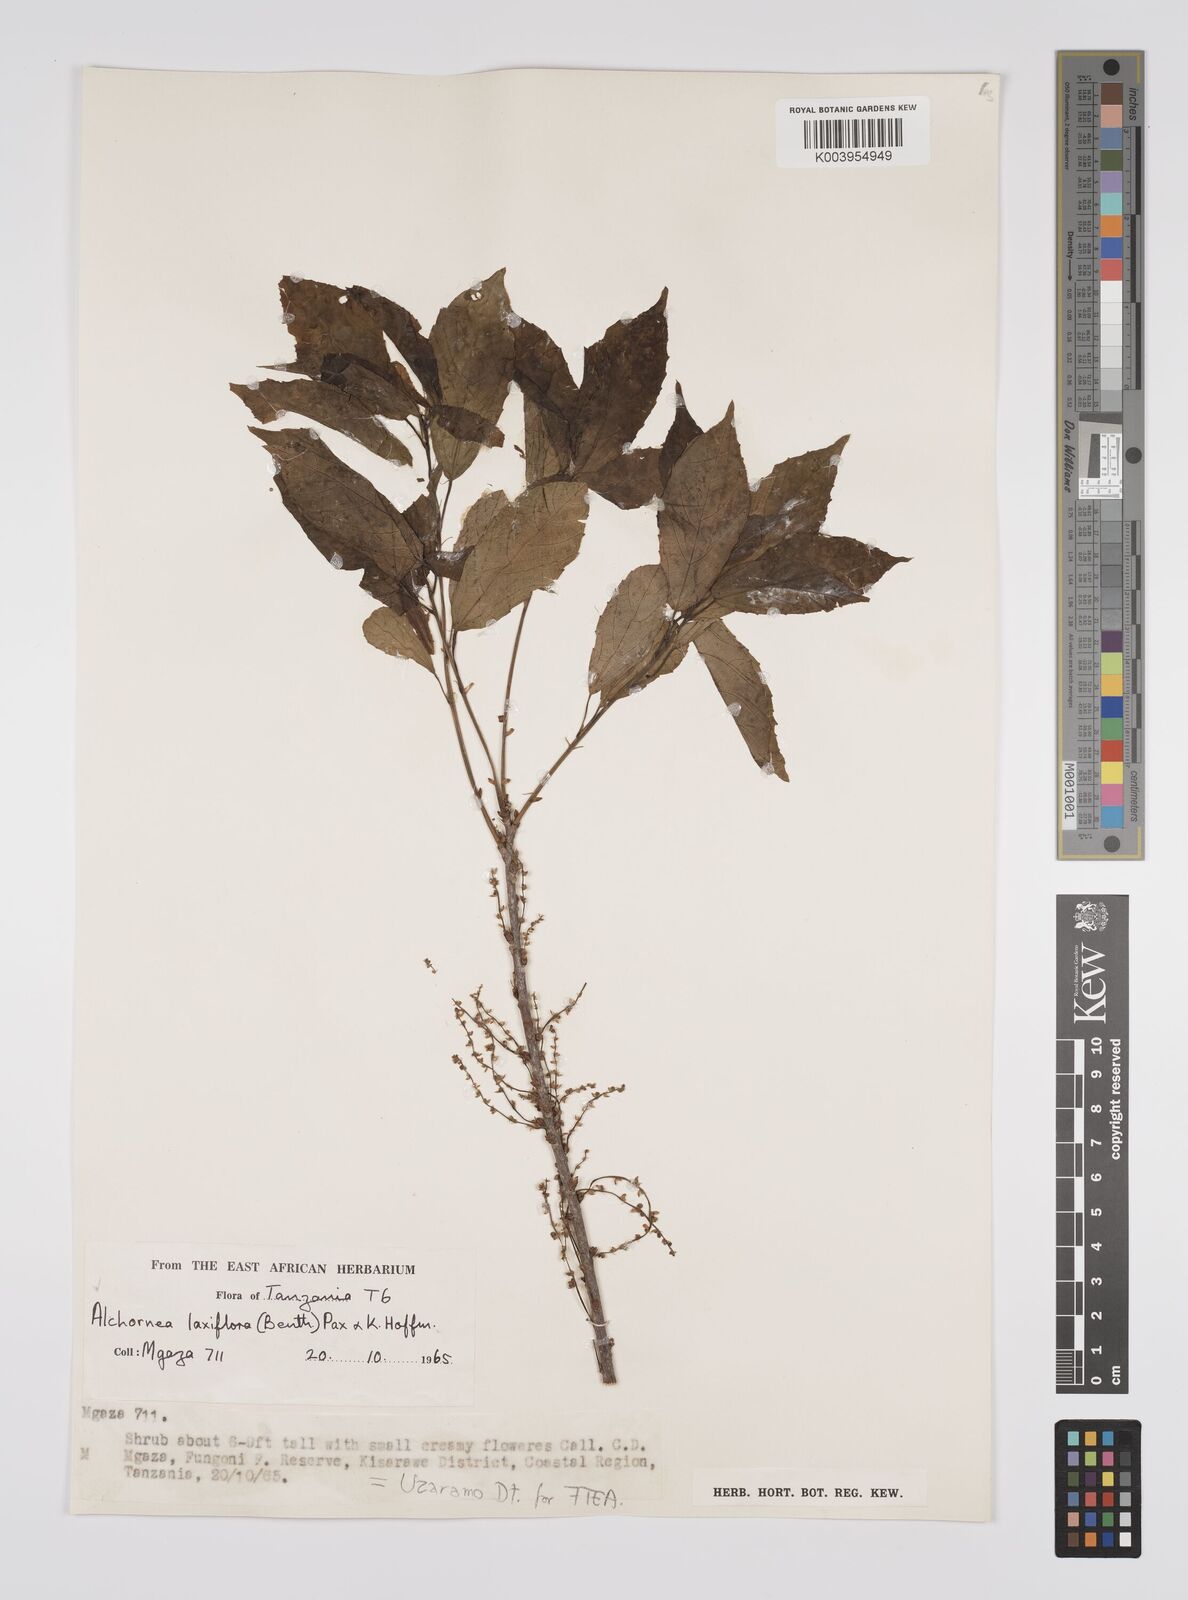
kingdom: Plantae
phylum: Tracheophyta
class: Magnoliopsida
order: Malpighiales
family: Euphorbiaceae
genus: Alchornea
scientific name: Alchornea laxiflora
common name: Lowveld bead-string
